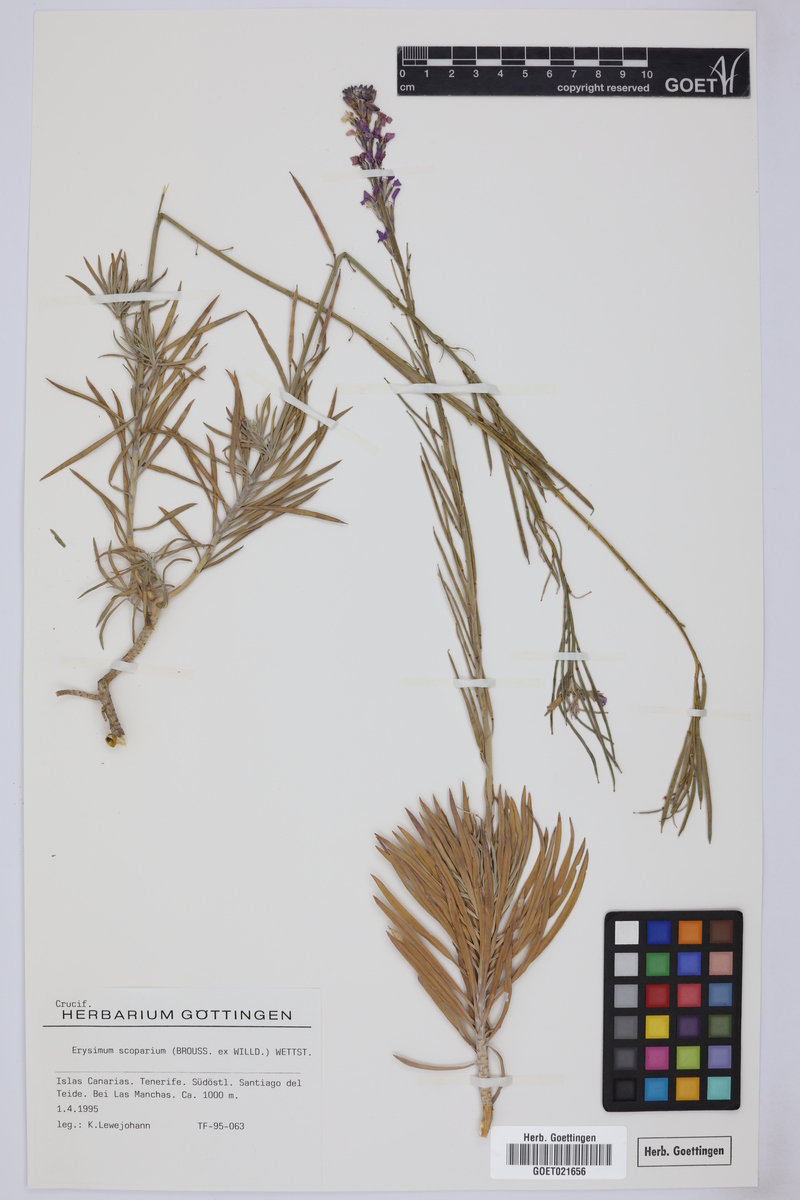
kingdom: Plantae
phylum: Tracheophyta
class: Magnoliopsida
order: Brassicales
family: Brassicaceae
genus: Erysimum
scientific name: Erysimum scoparium
